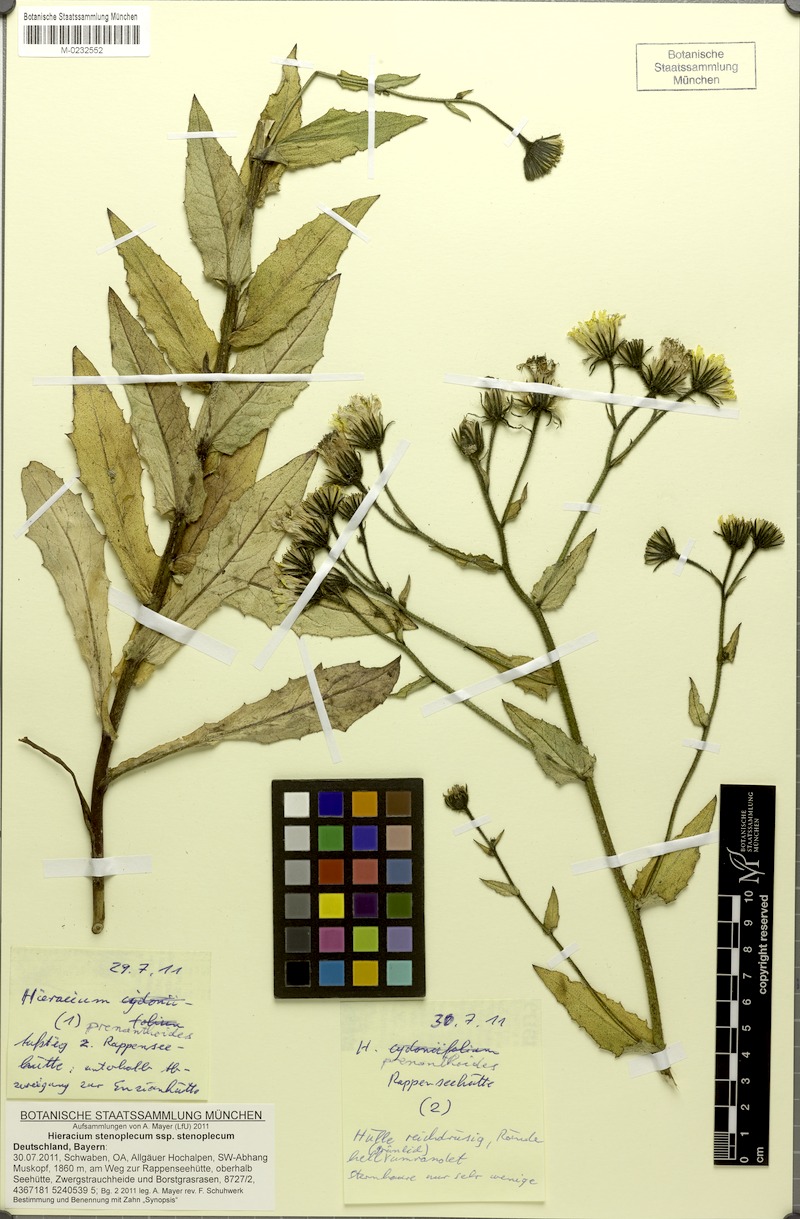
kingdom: Plantae
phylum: Tracheophyta
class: Magnoliopsida
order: Asterales
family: Asteraceae
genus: Hieracium
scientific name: Hieracium stenoplecum
